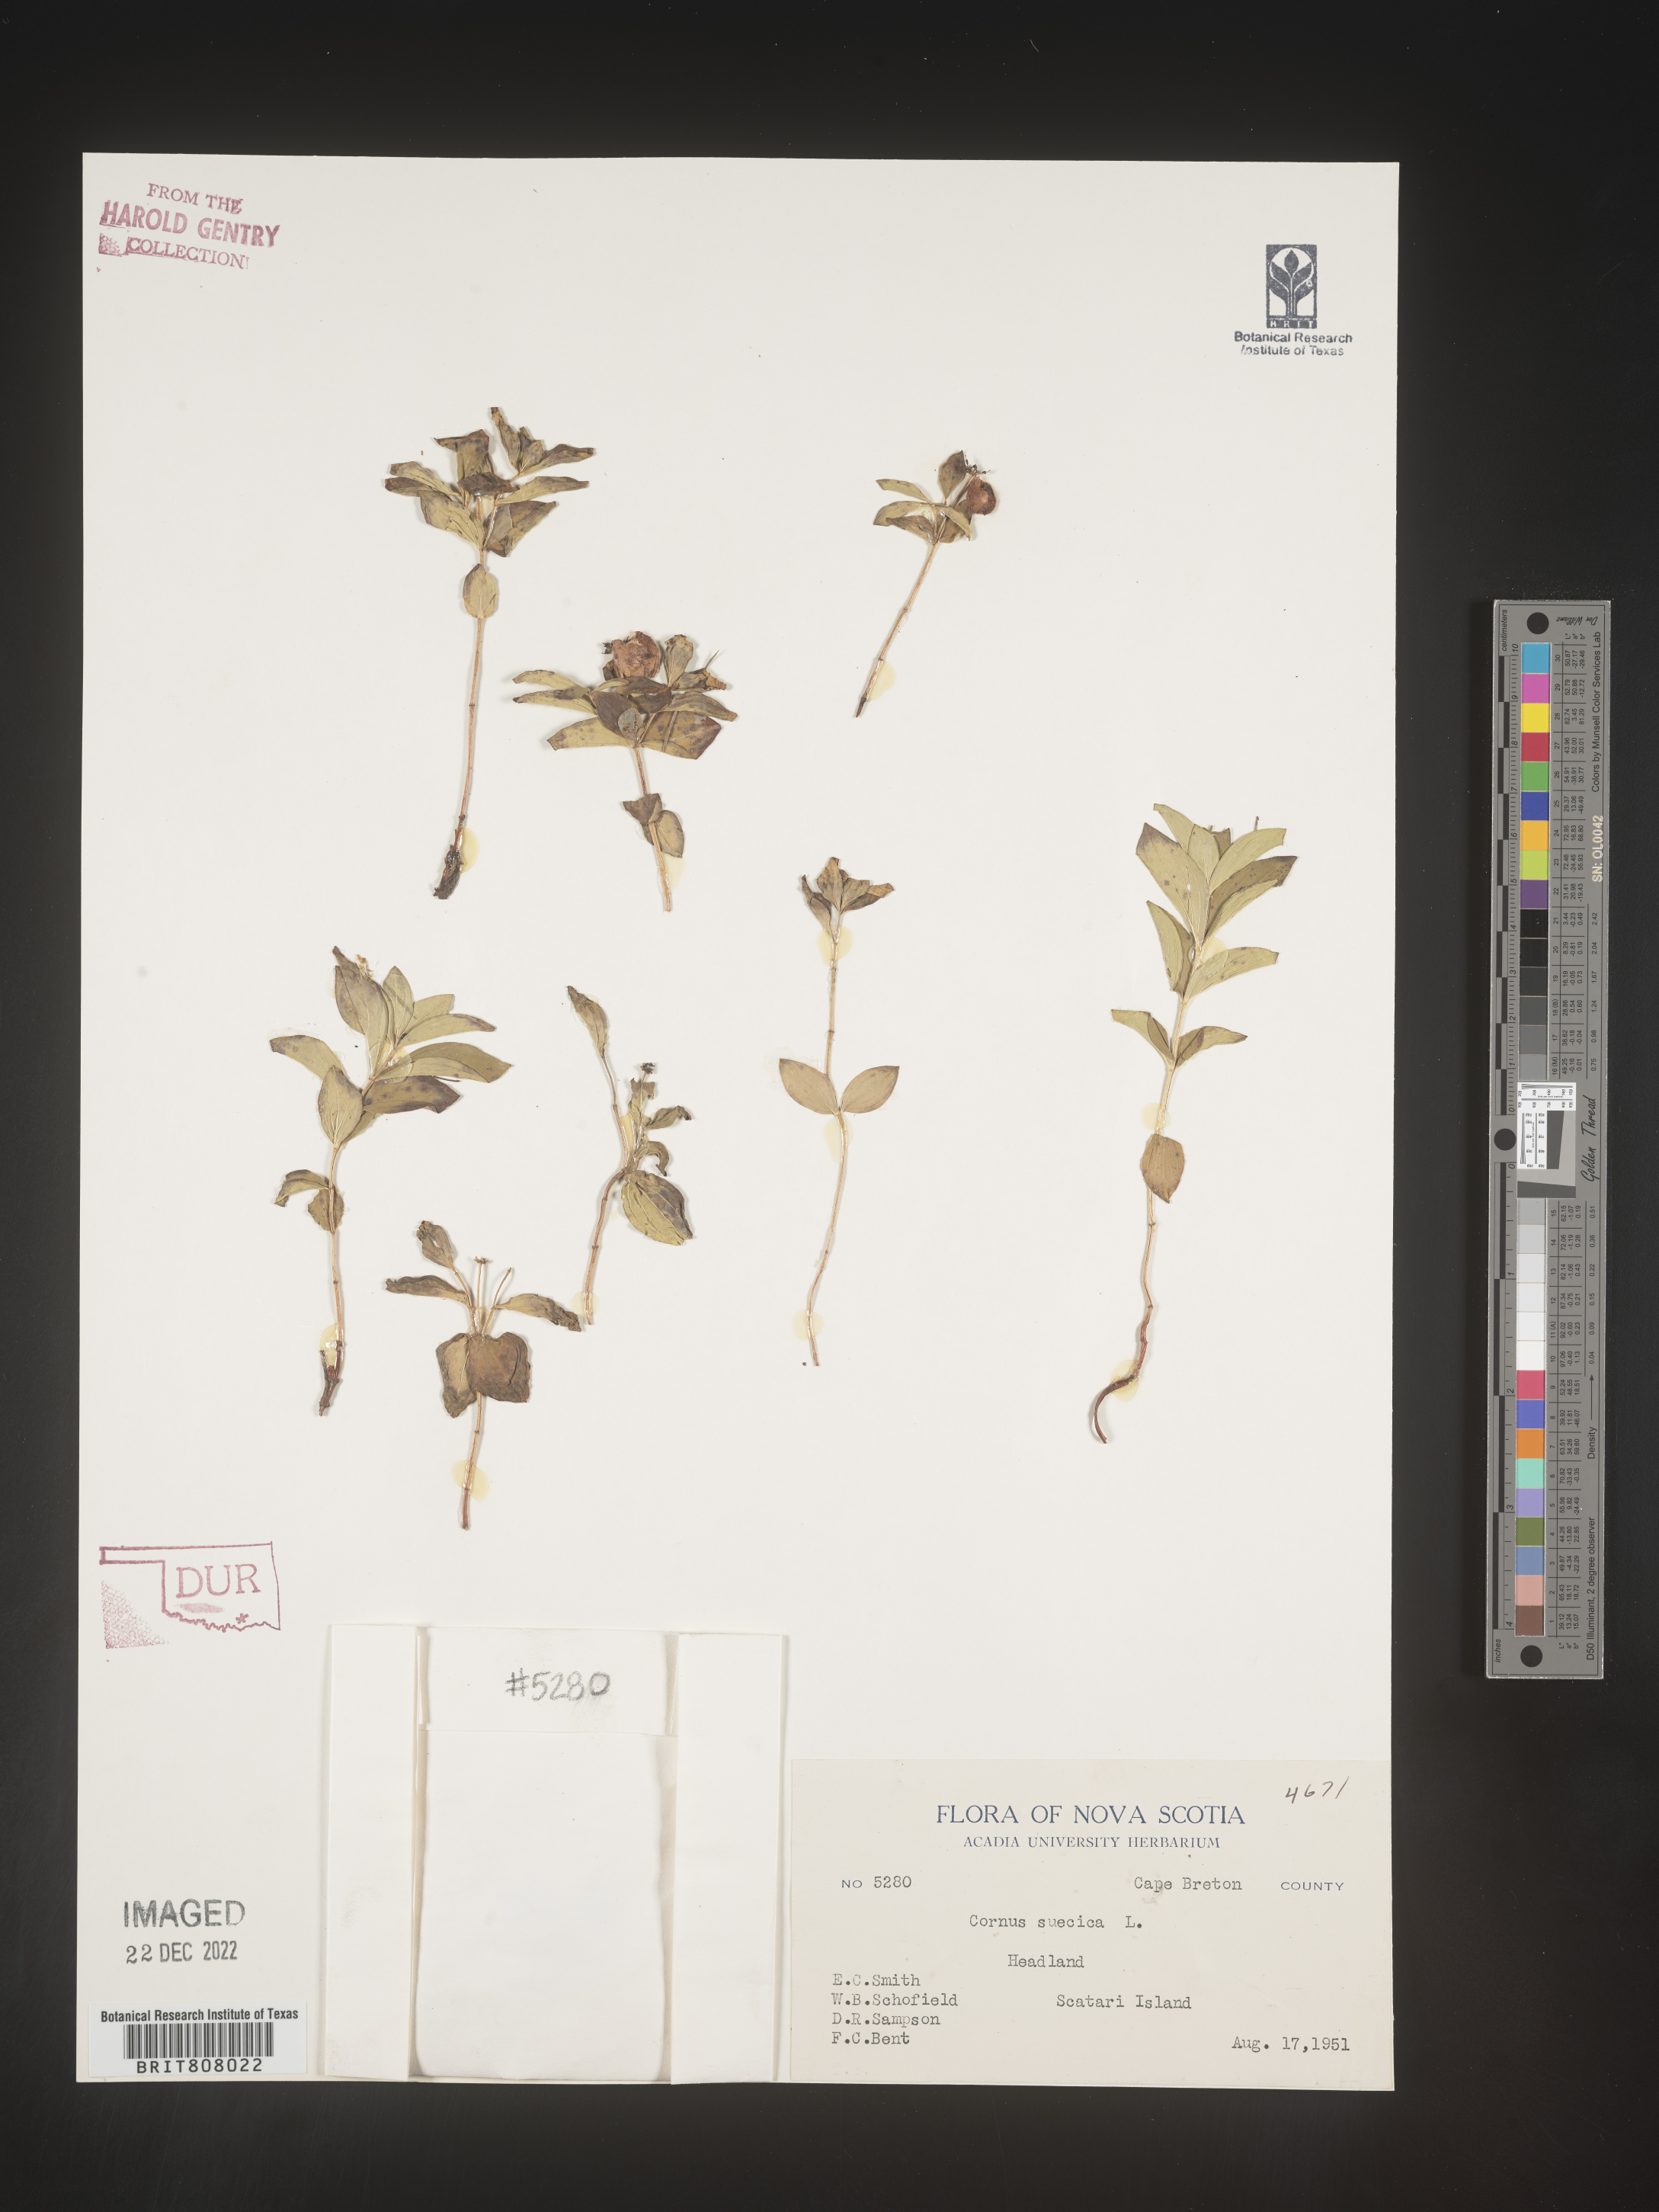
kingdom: Plantae
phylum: Tracheophyta
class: Magnoliopsida
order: Cornales
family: Cornaceae
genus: Cornus
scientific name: Cornus
